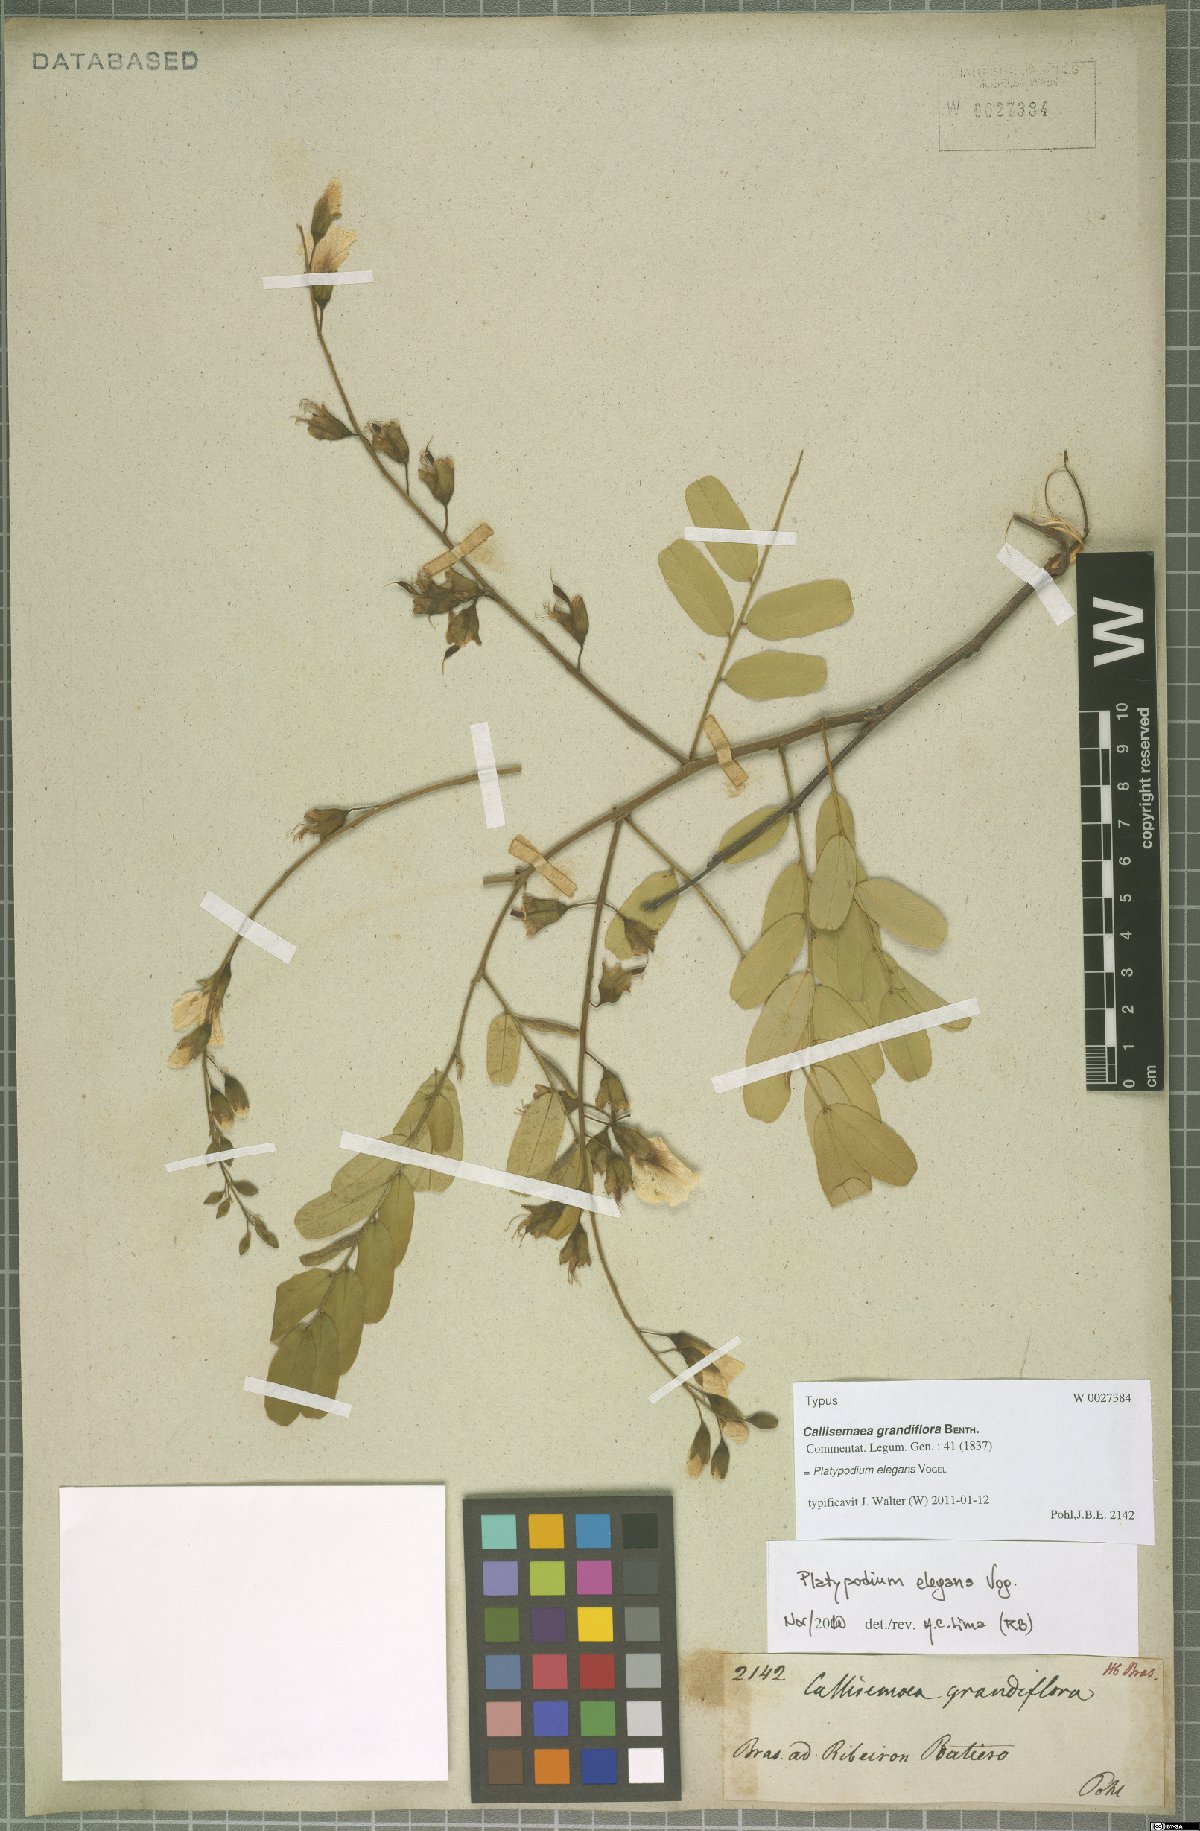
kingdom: Plantae
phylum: Tracheophyta
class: Magnoliopsida
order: Fabales
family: Fabaceae
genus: Platypodium
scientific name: Platypodium elegans
